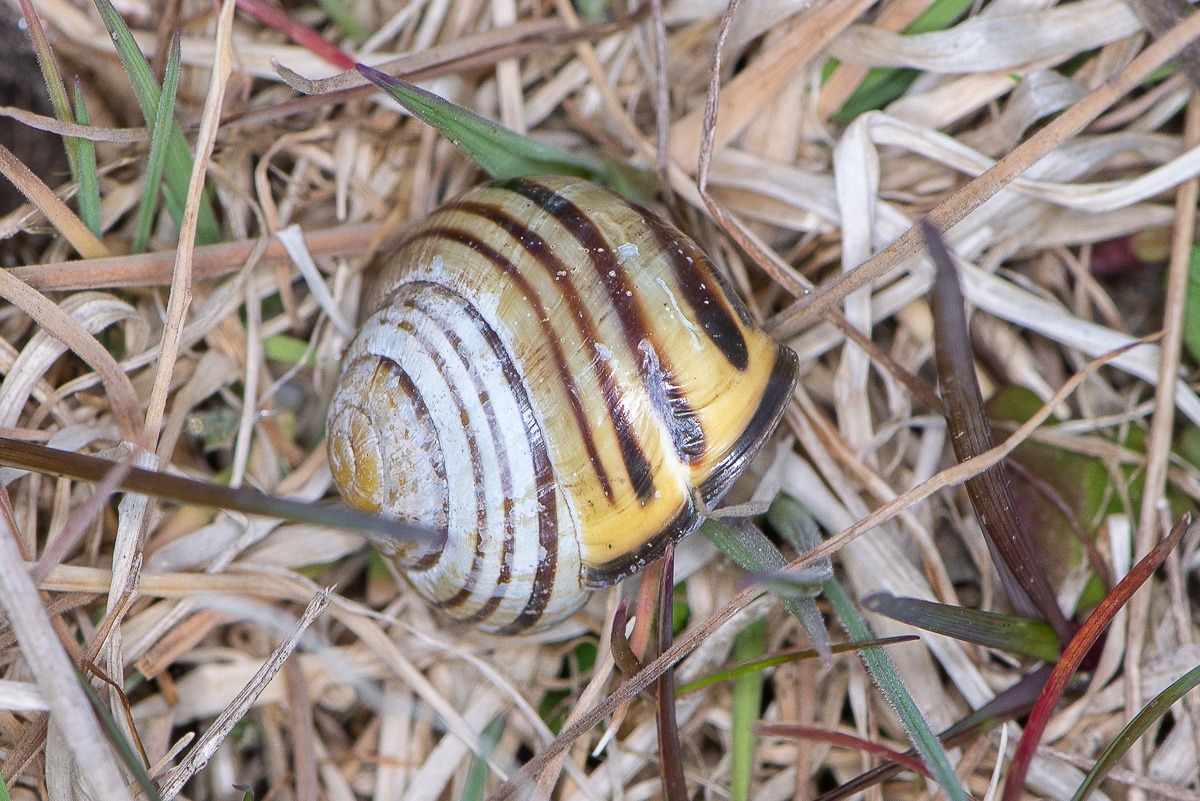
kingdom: Animalia
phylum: Mollusca
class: Gastropoda
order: Stylommatophora
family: Helicidae
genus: Cepaea
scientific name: Cepaea nemoralis
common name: Lundsnegl
